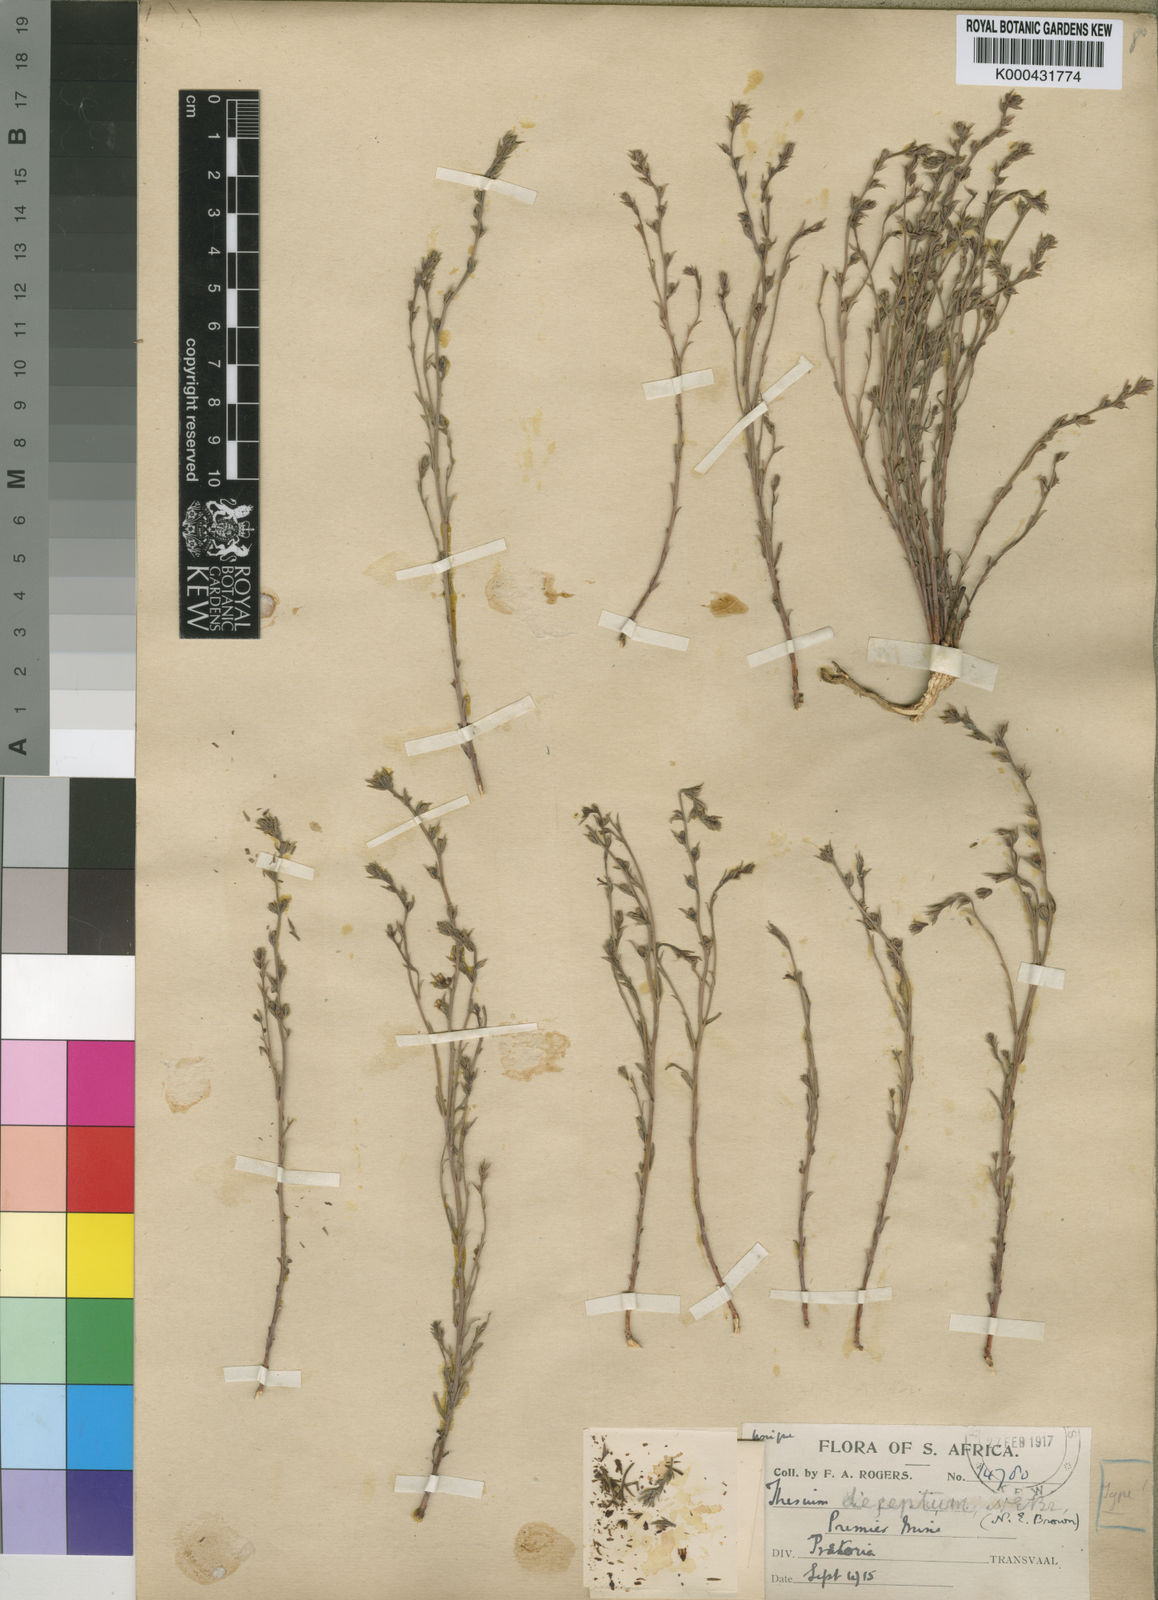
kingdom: Plantae
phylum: Tracheophyta
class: Magnoliopsida
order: Santalales
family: Thesiaceae
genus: Thesium
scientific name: Thesium deceptum
